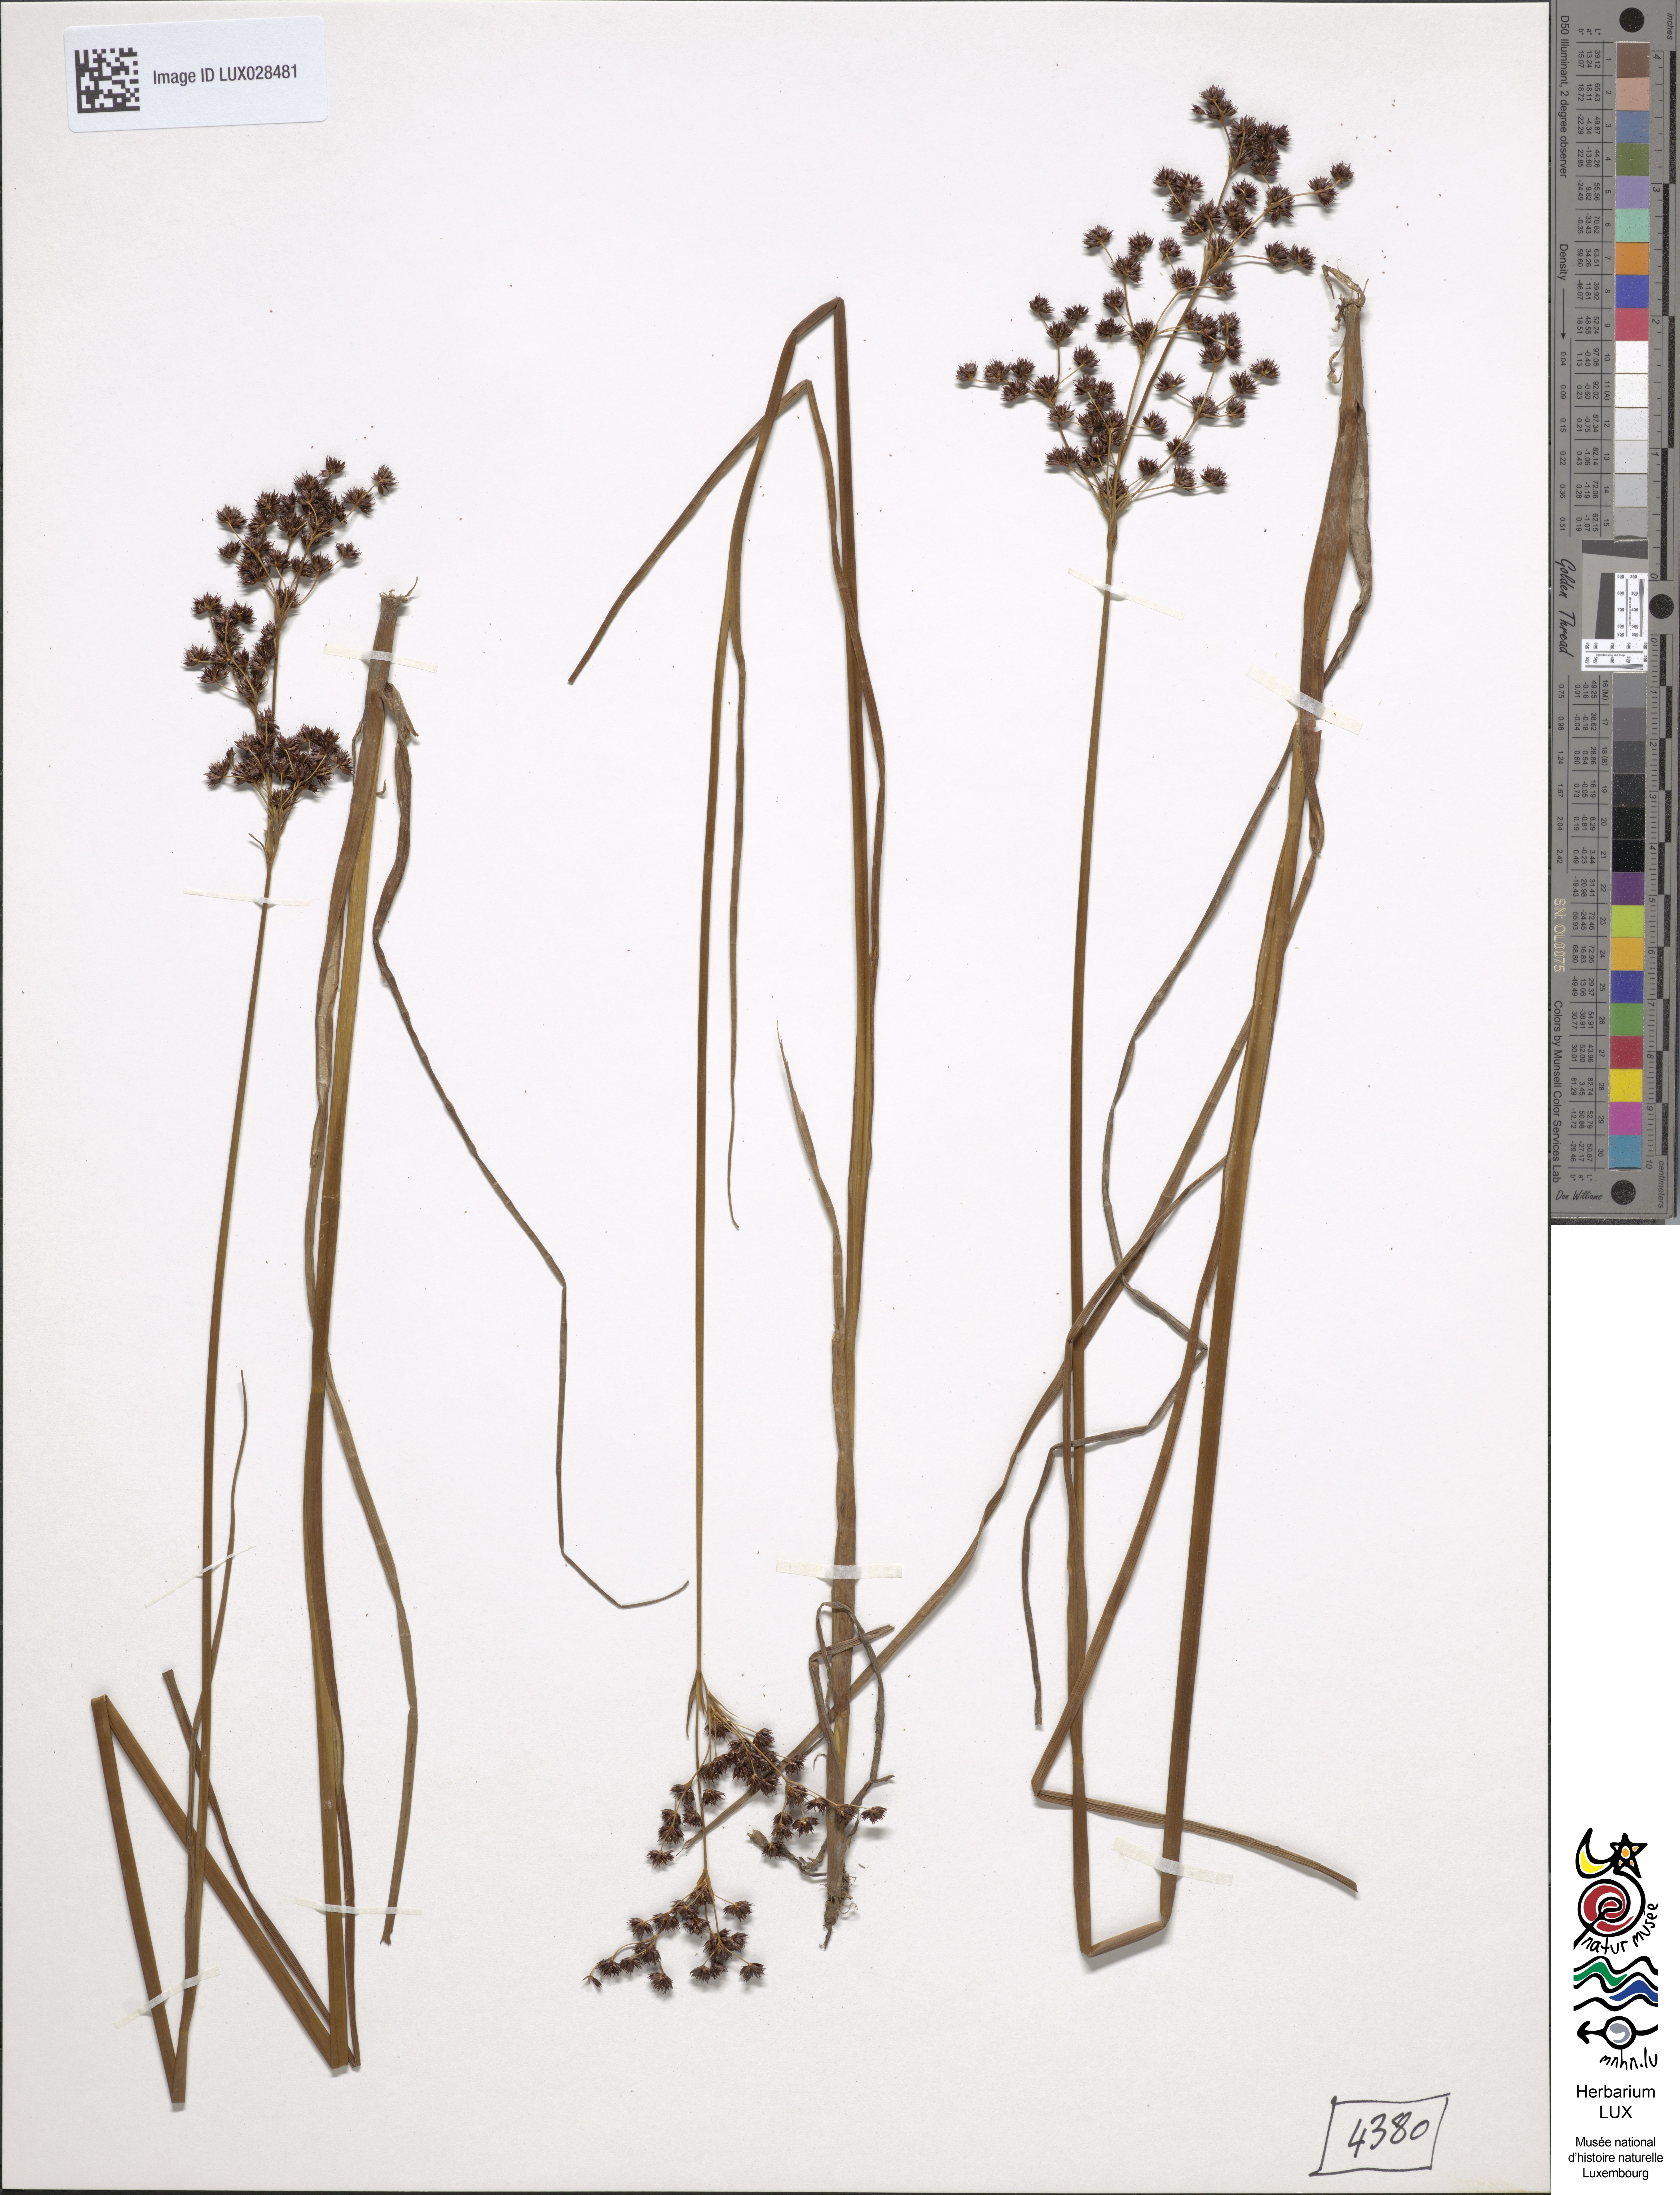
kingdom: Plantae
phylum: Tracheophyta
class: Liliopsida
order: Poales
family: Juncaceae
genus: Juncus
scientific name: Juncus atratus
